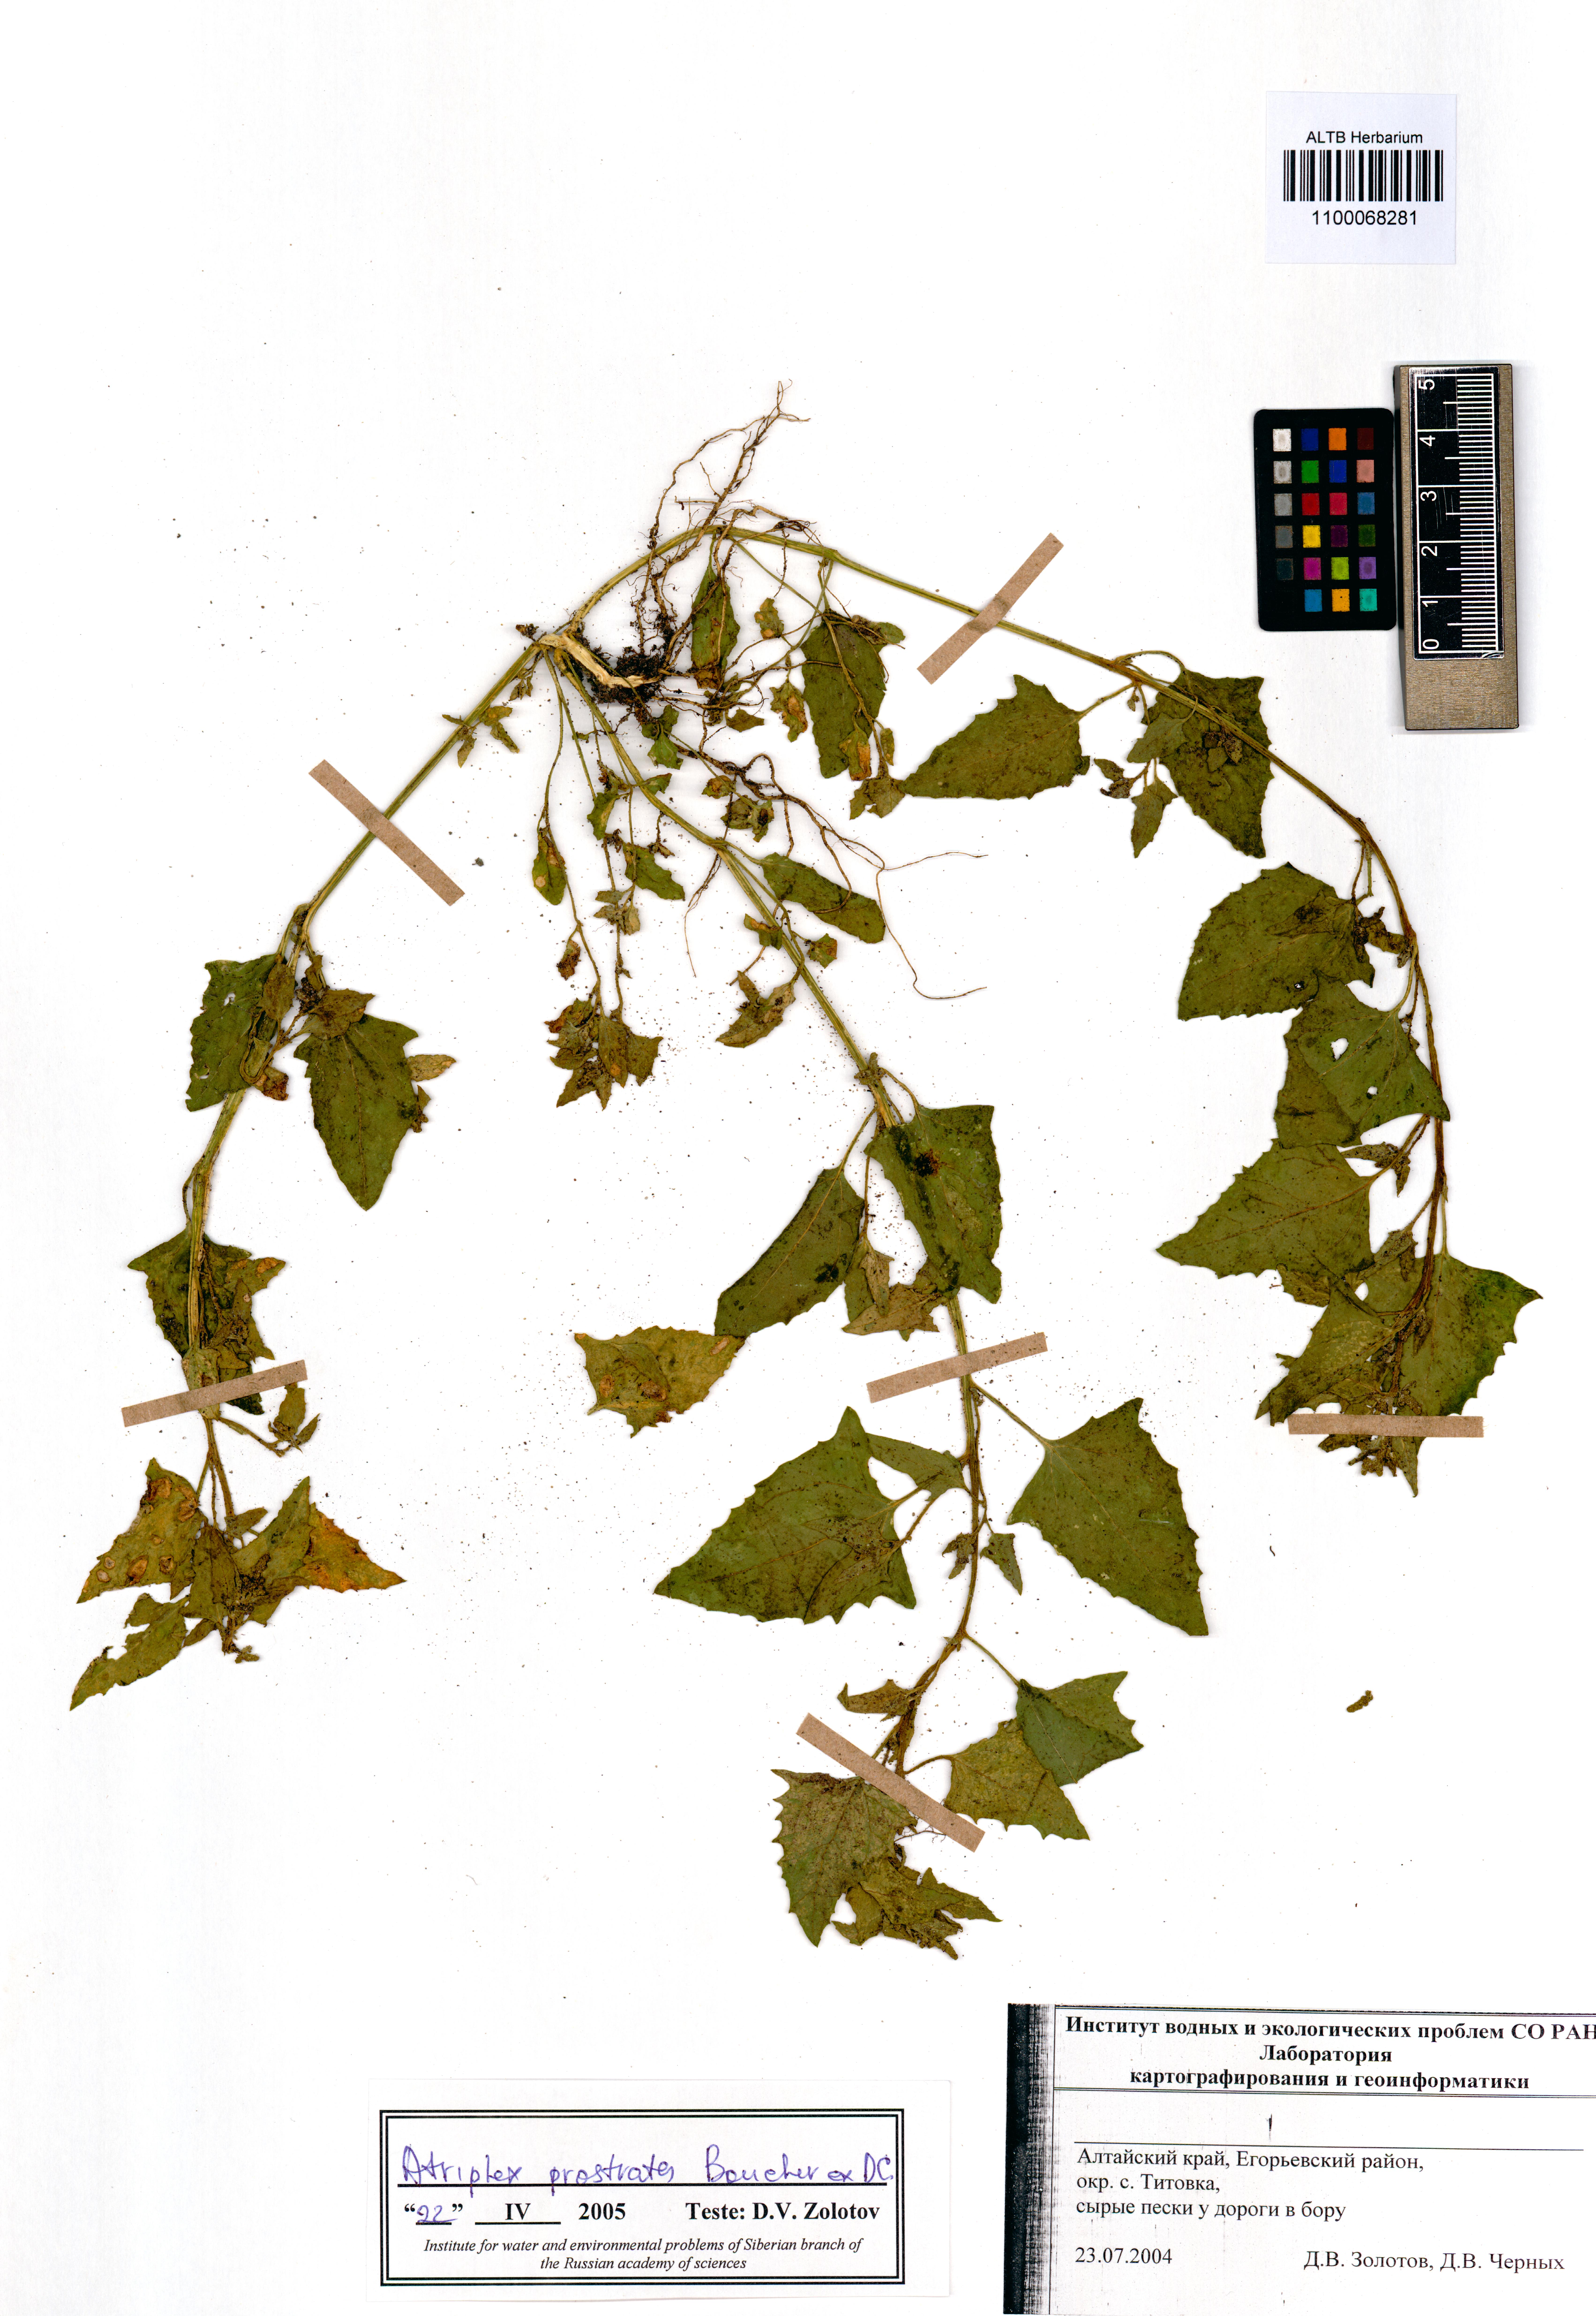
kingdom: Plantae
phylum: Tracheophyta
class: Magnoliopsida
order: Caryophyllales
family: Amaranthaceae
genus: Atriplex
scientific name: Atriplex prostrata
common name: Spear-leaved orache
